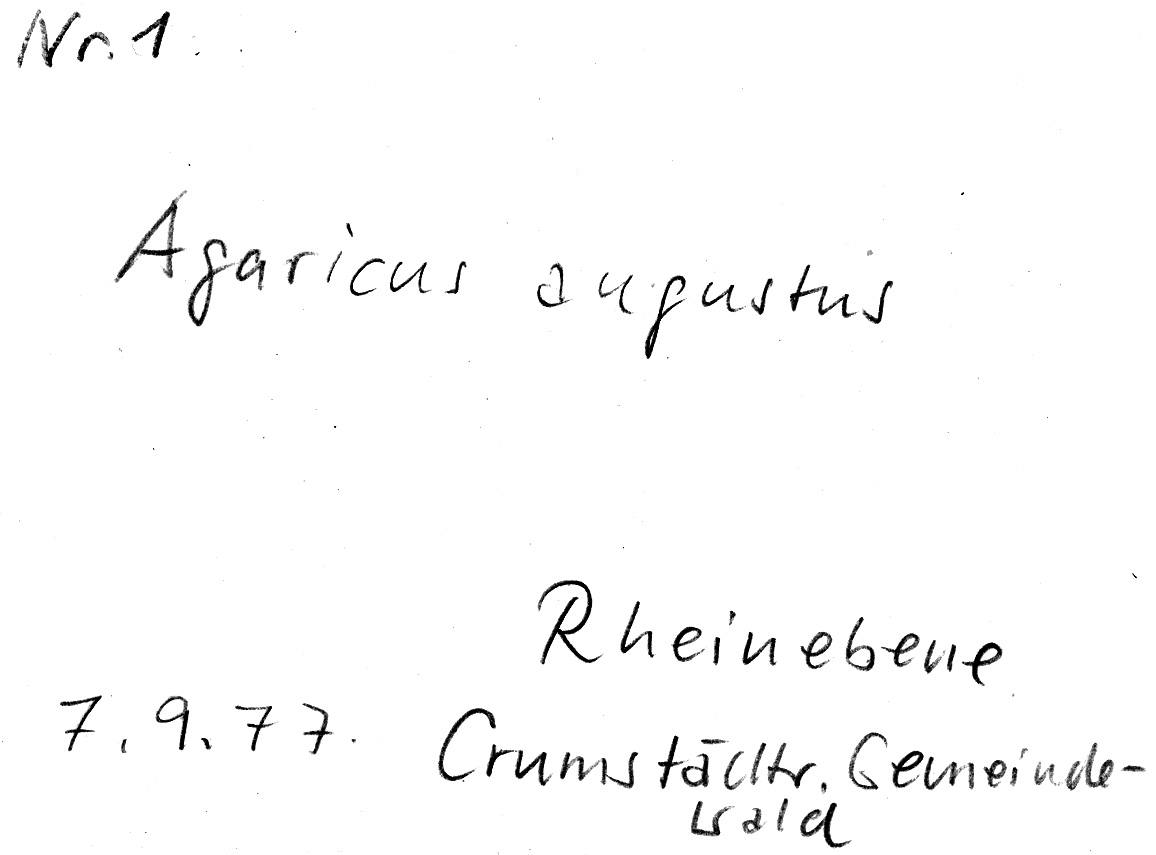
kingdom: Fungi
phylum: Basidiomycota
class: Agaricomycetes
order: Agaricales
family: Agaricaceae
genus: Agaricus
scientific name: Agaricus augustus
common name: Prince
